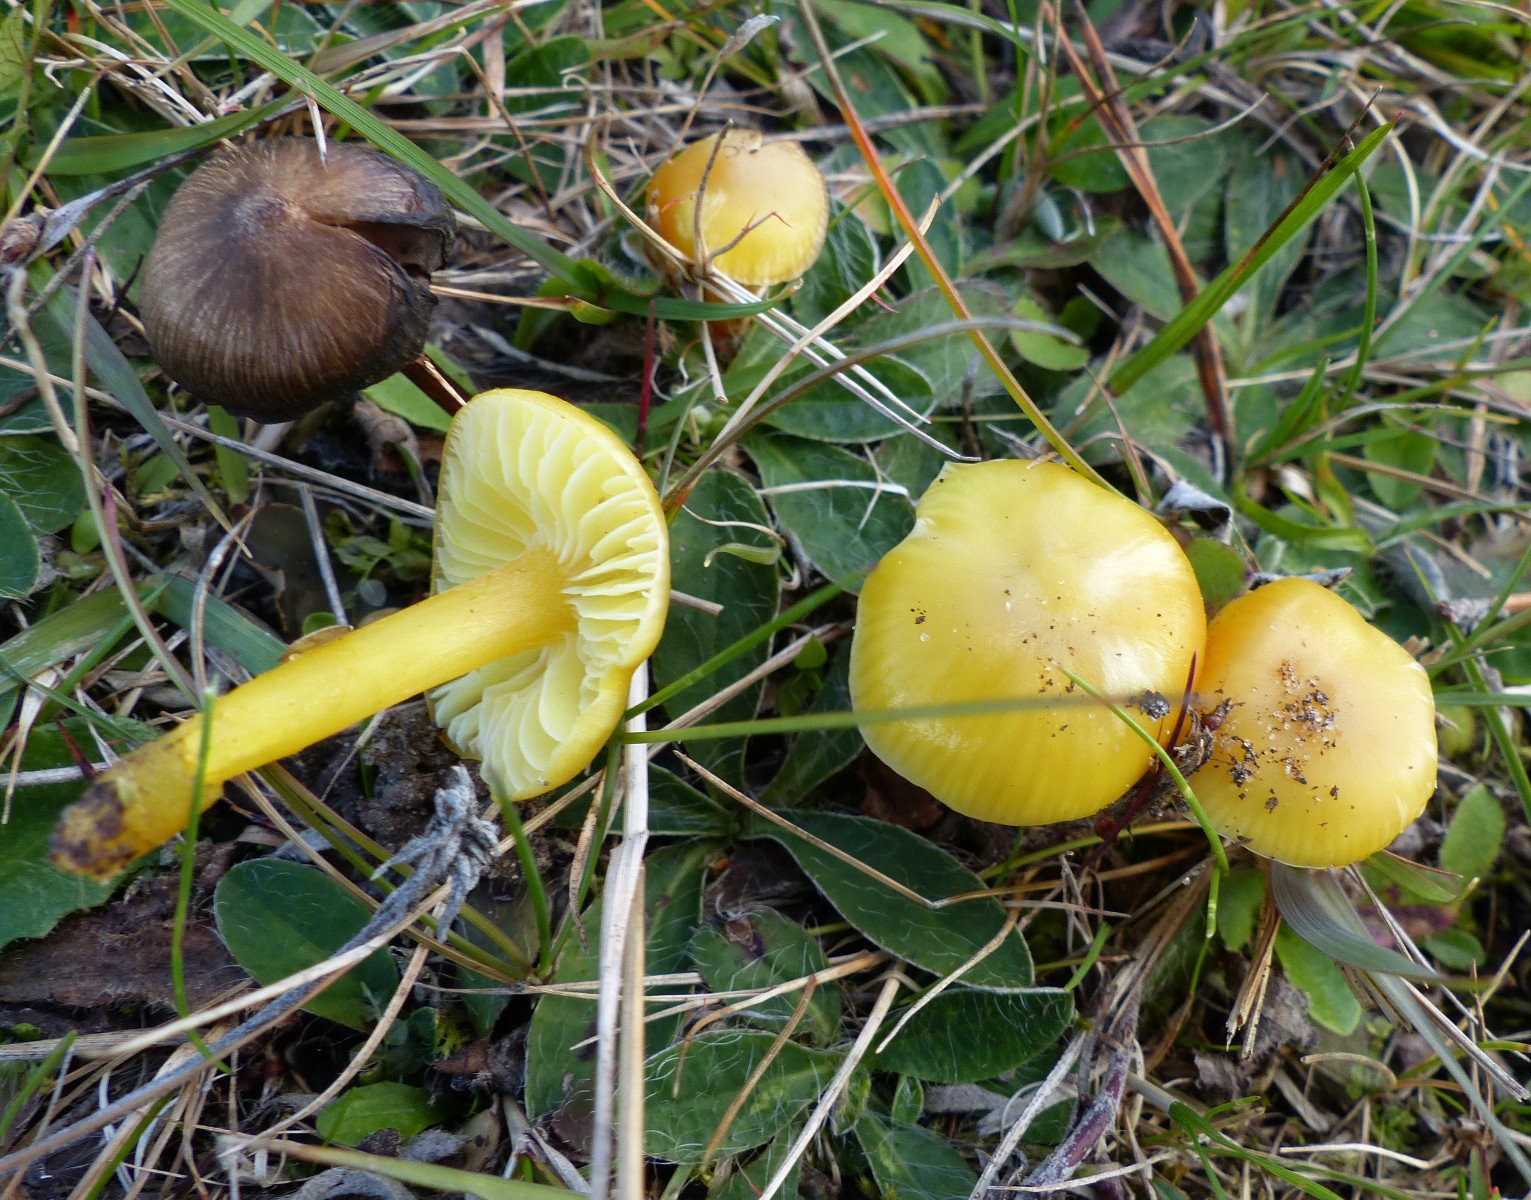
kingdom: Fungi
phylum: Basidiomycota
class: Agaricomycetes
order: Agaricales
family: Hygrophoraceae
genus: Hygrocybe
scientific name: Hygrocybe chlorophana
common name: gul vokshat
